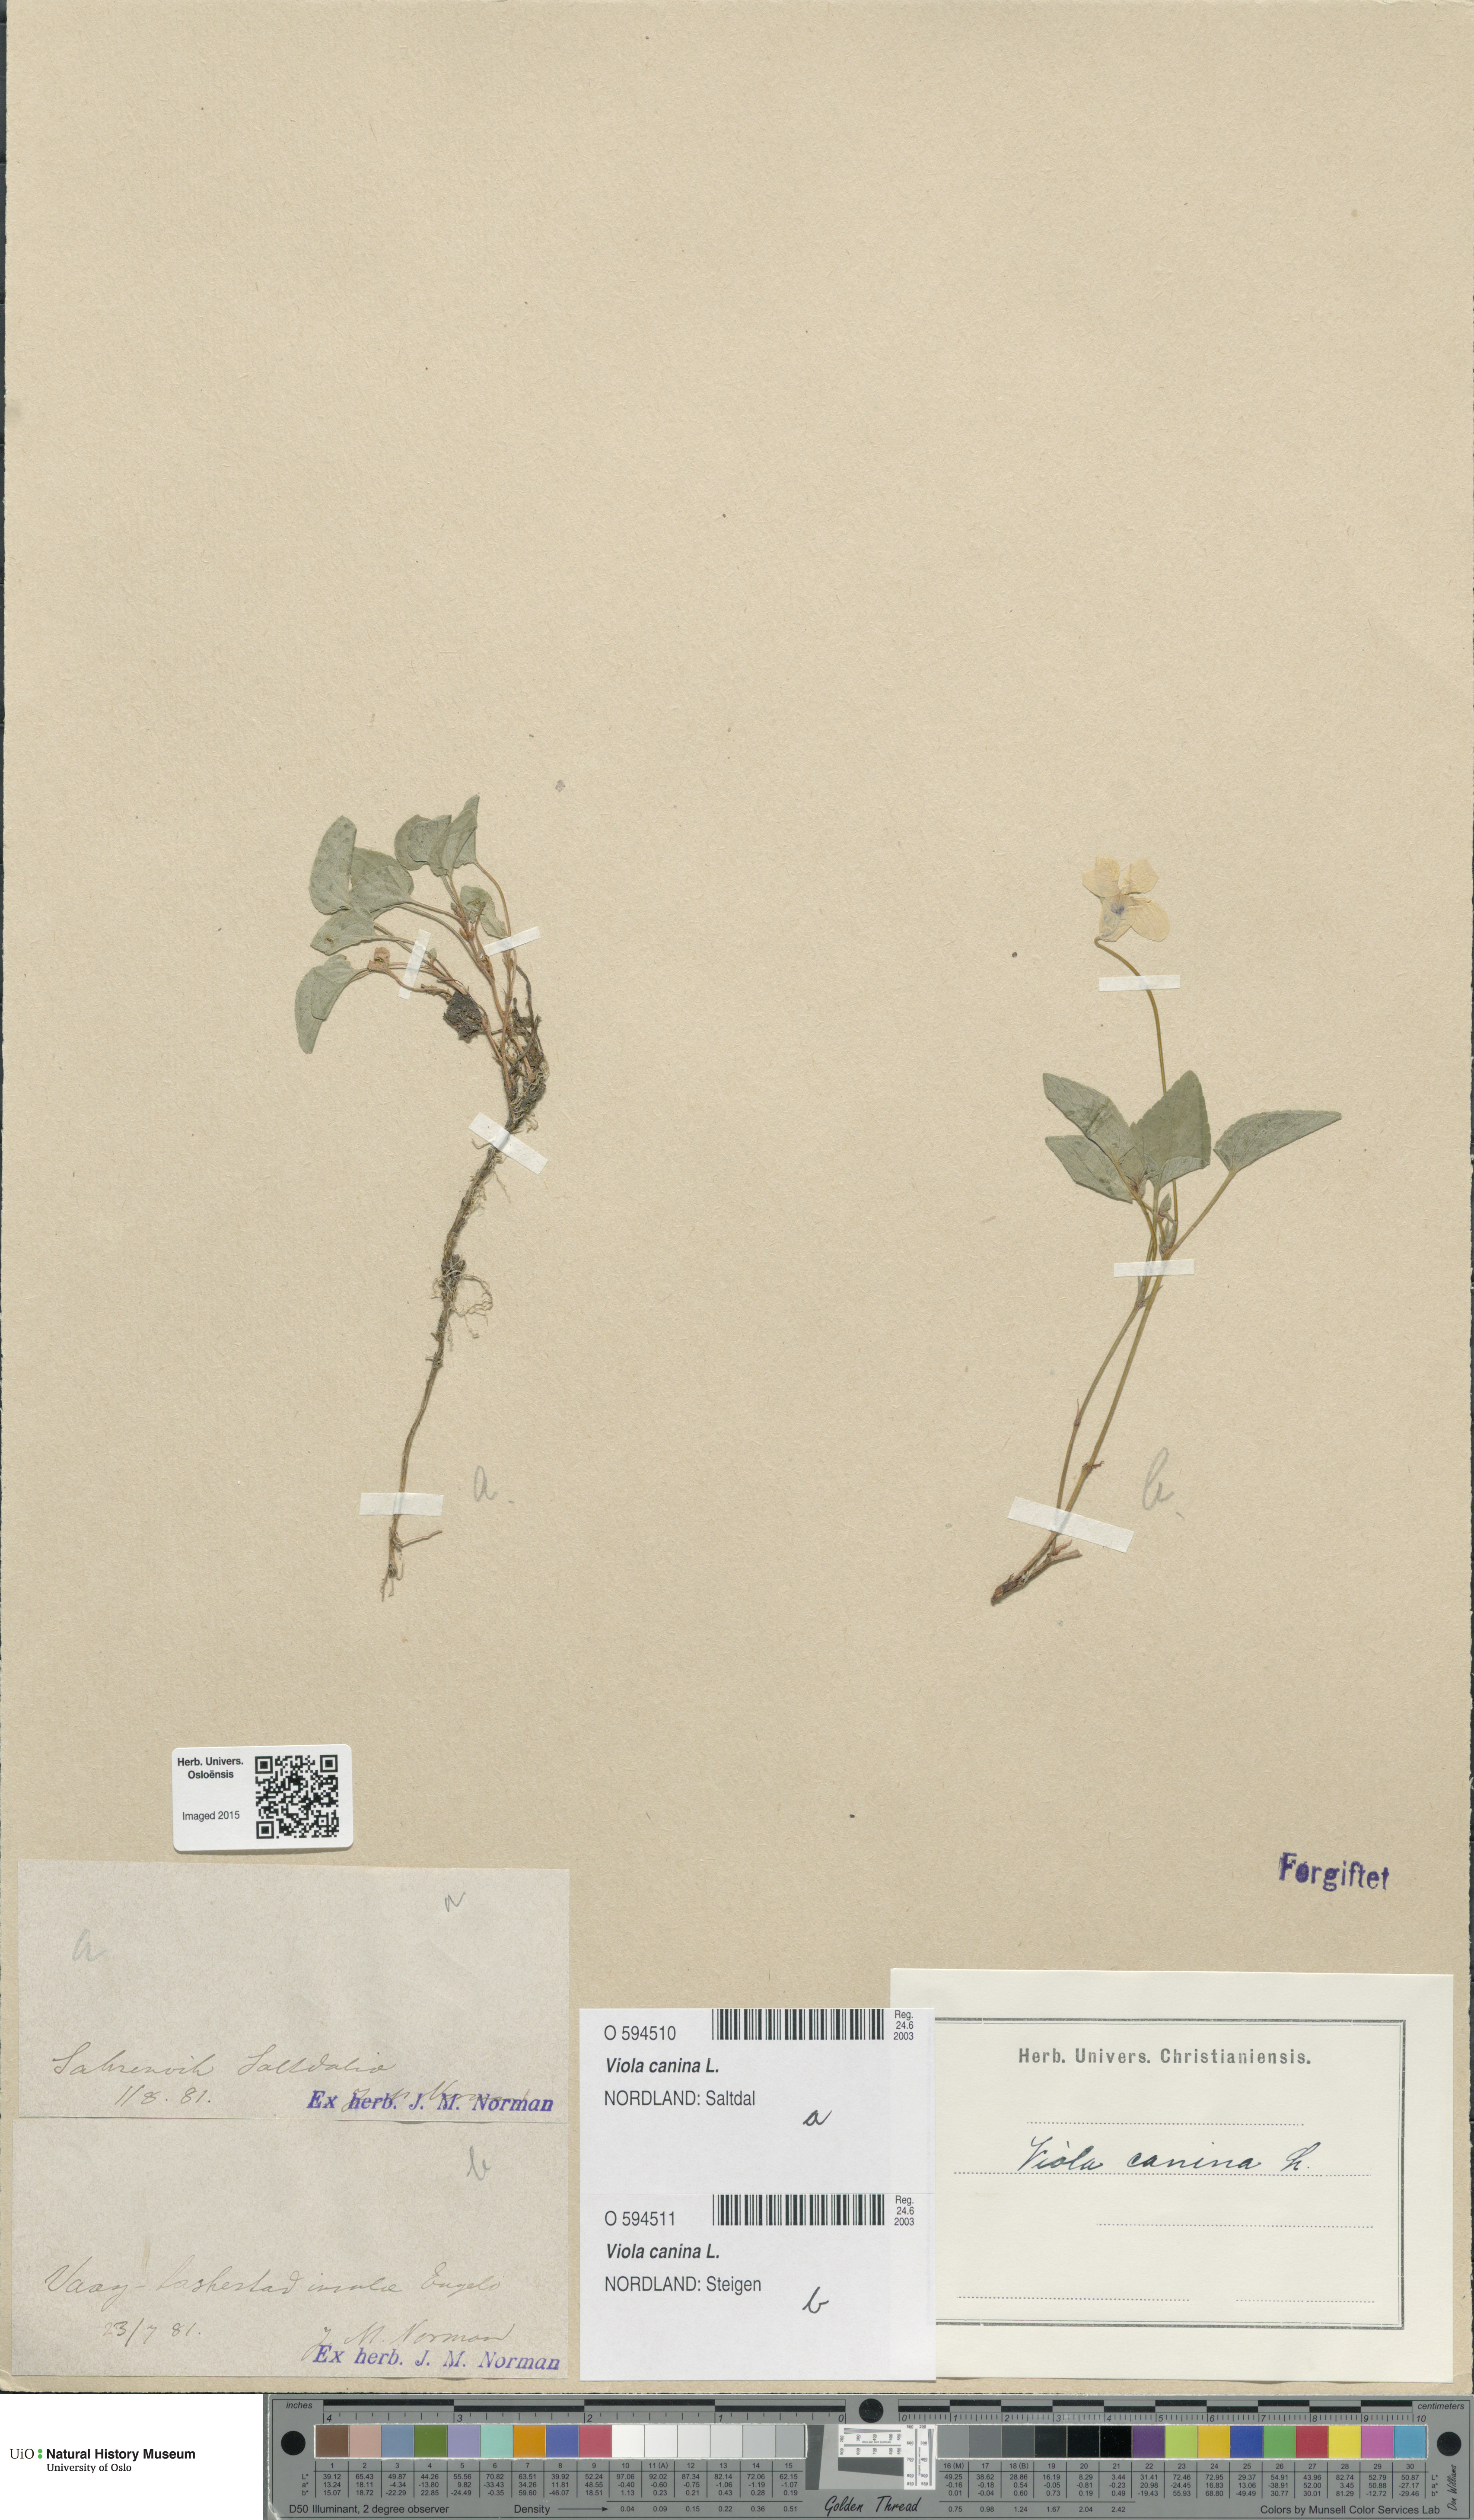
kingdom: Plantae
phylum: Tracheophyta
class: Magnoliopsida
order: Malpighiales
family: Violaceae
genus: Viola
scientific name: Viola canina
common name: Heath dog-violet
